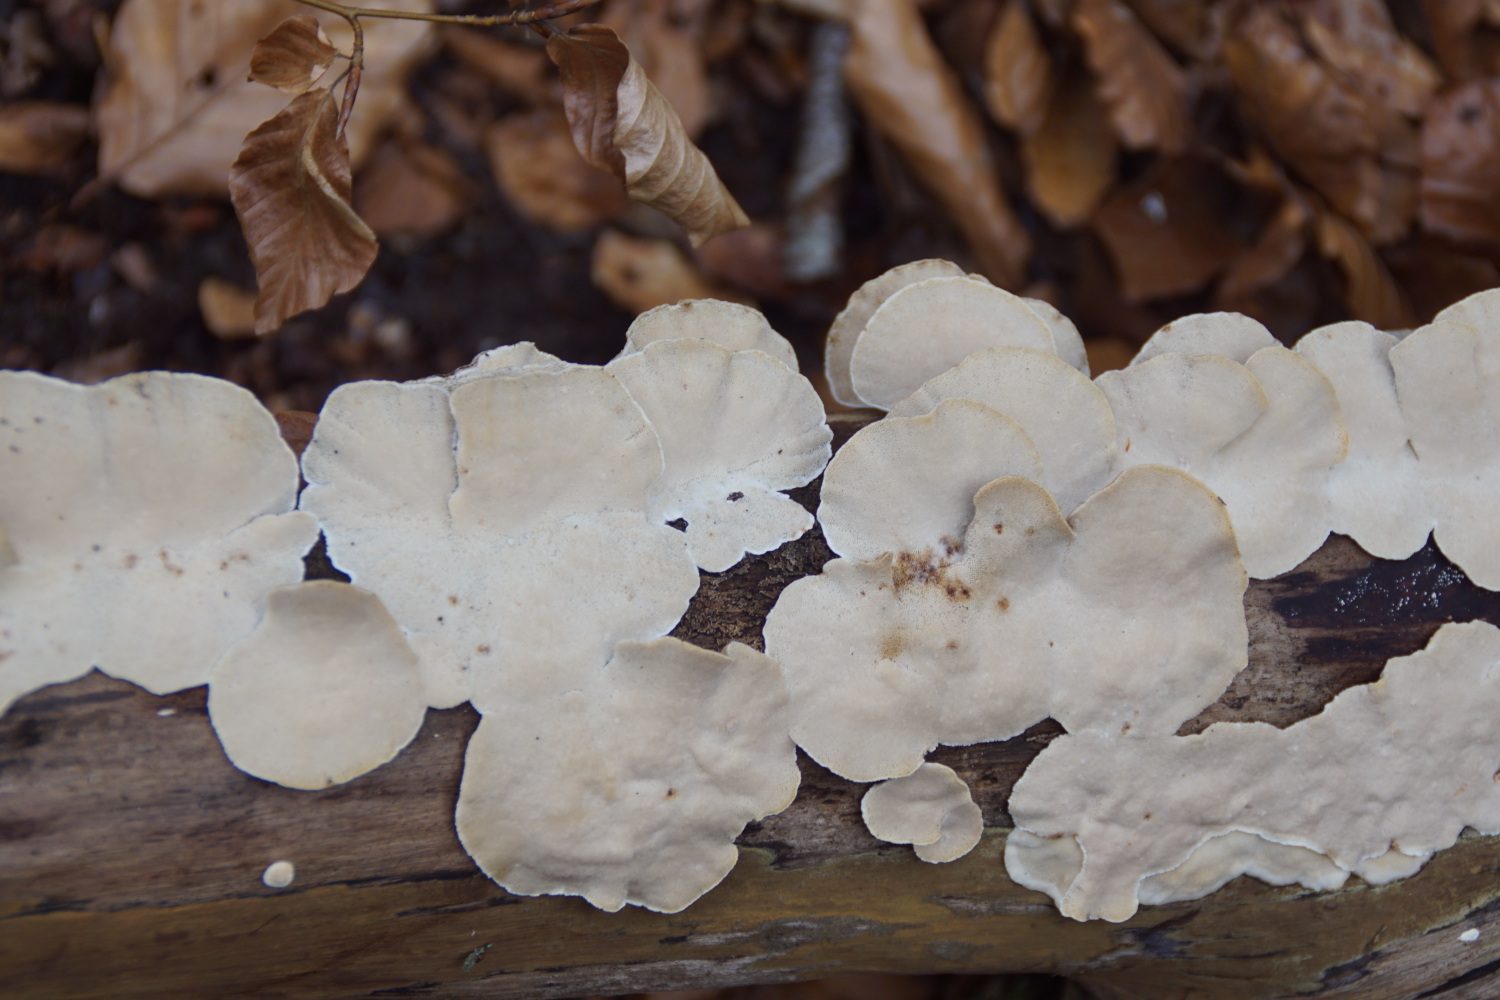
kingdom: Fungi
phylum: Basidiomycota
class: Agaricomycetes
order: Polyporales
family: Polyporaceae
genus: Trametes
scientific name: Trametes versicolor
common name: broget læderporesvamp
